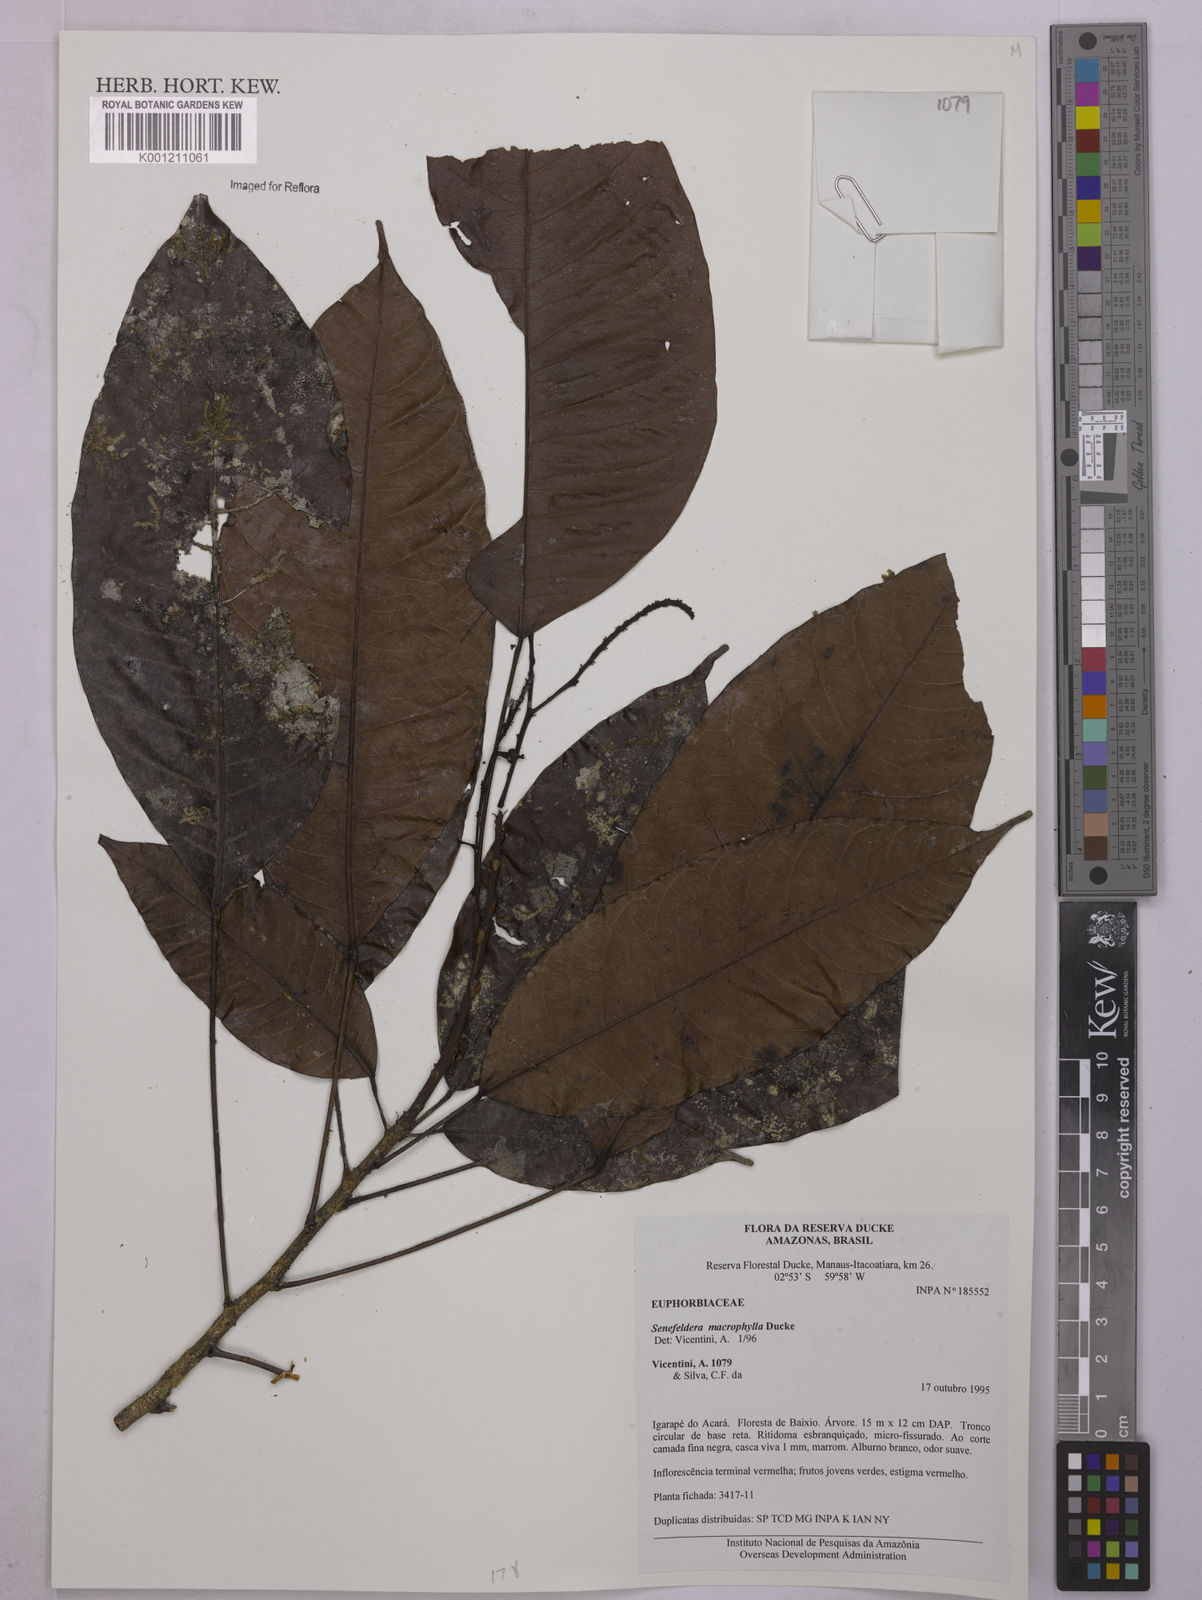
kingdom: Plantae
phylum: Tracheophyta
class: Magnoliopsida
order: Malpighiales
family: Euphorbiaceae
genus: Rhodothyrsus
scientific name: Rhodothyrsus macrophyllus
